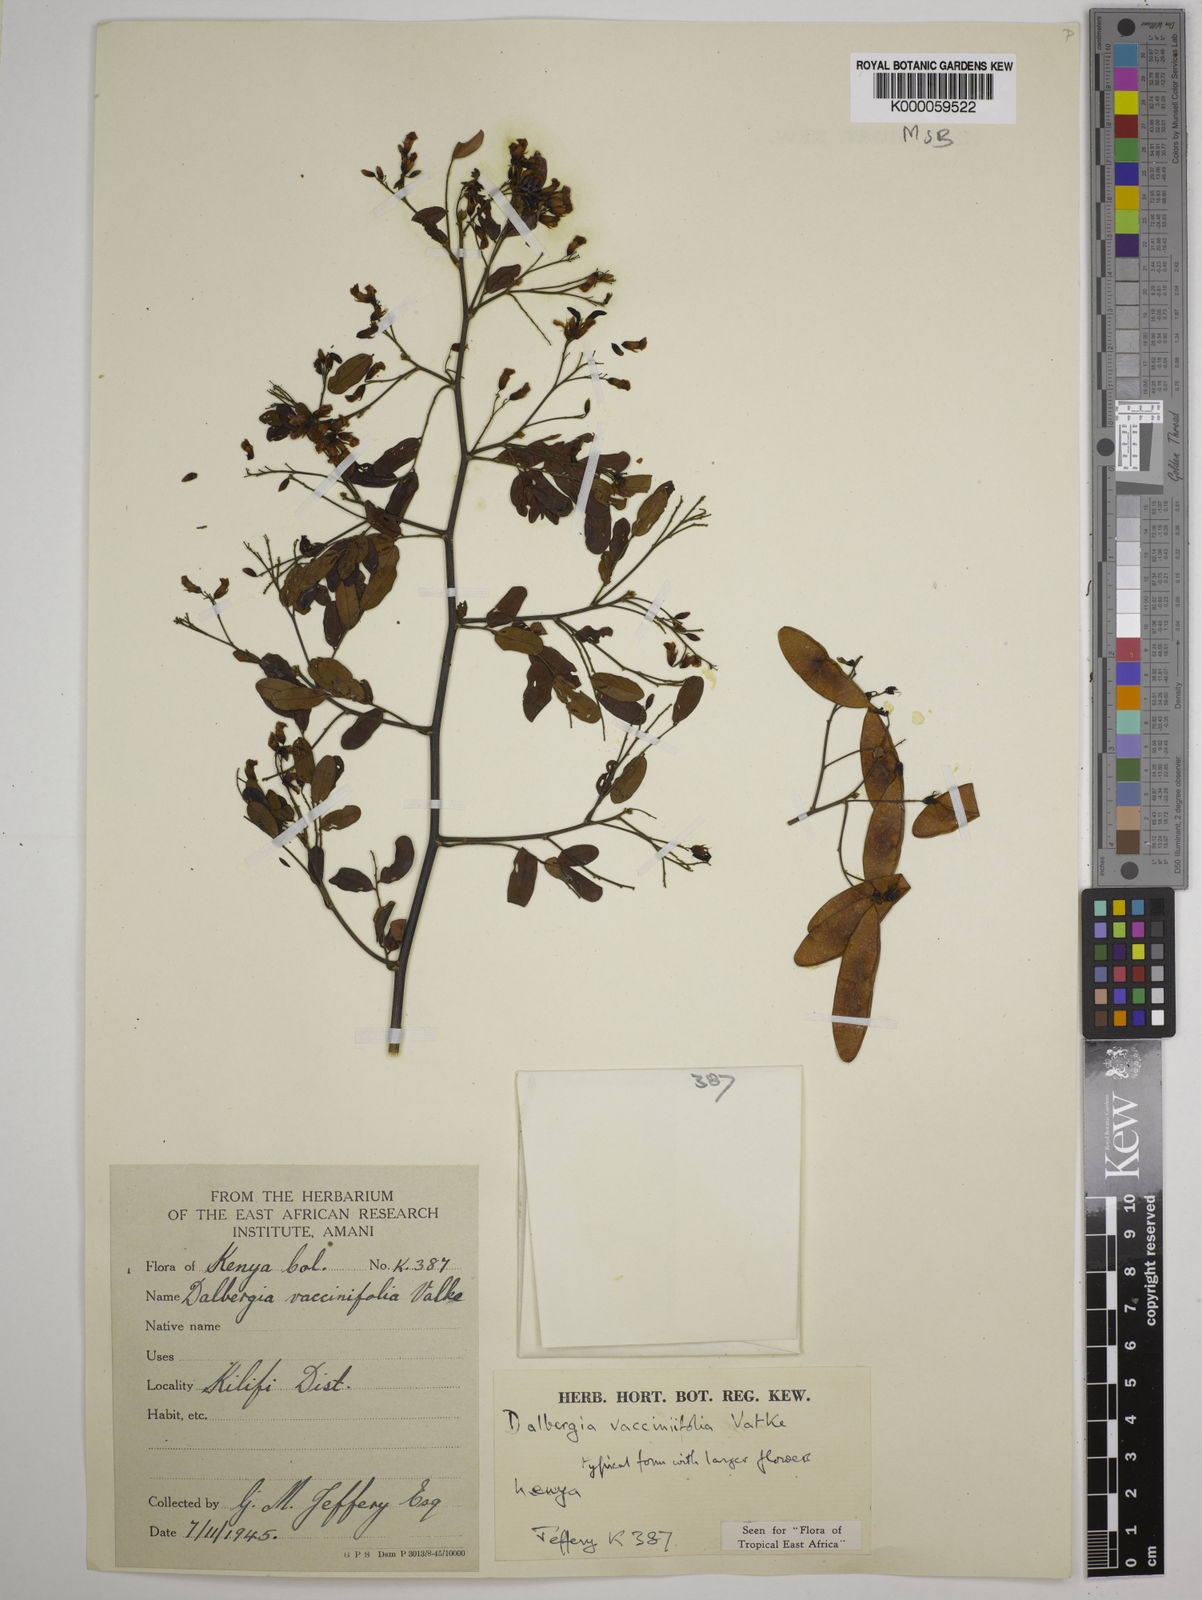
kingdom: Plantae
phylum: Tracheophyta
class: Magnoliopsida
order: Fabales
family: Fabaceae
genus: Dalbergia
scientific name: Dalbergia vacciniifolia
